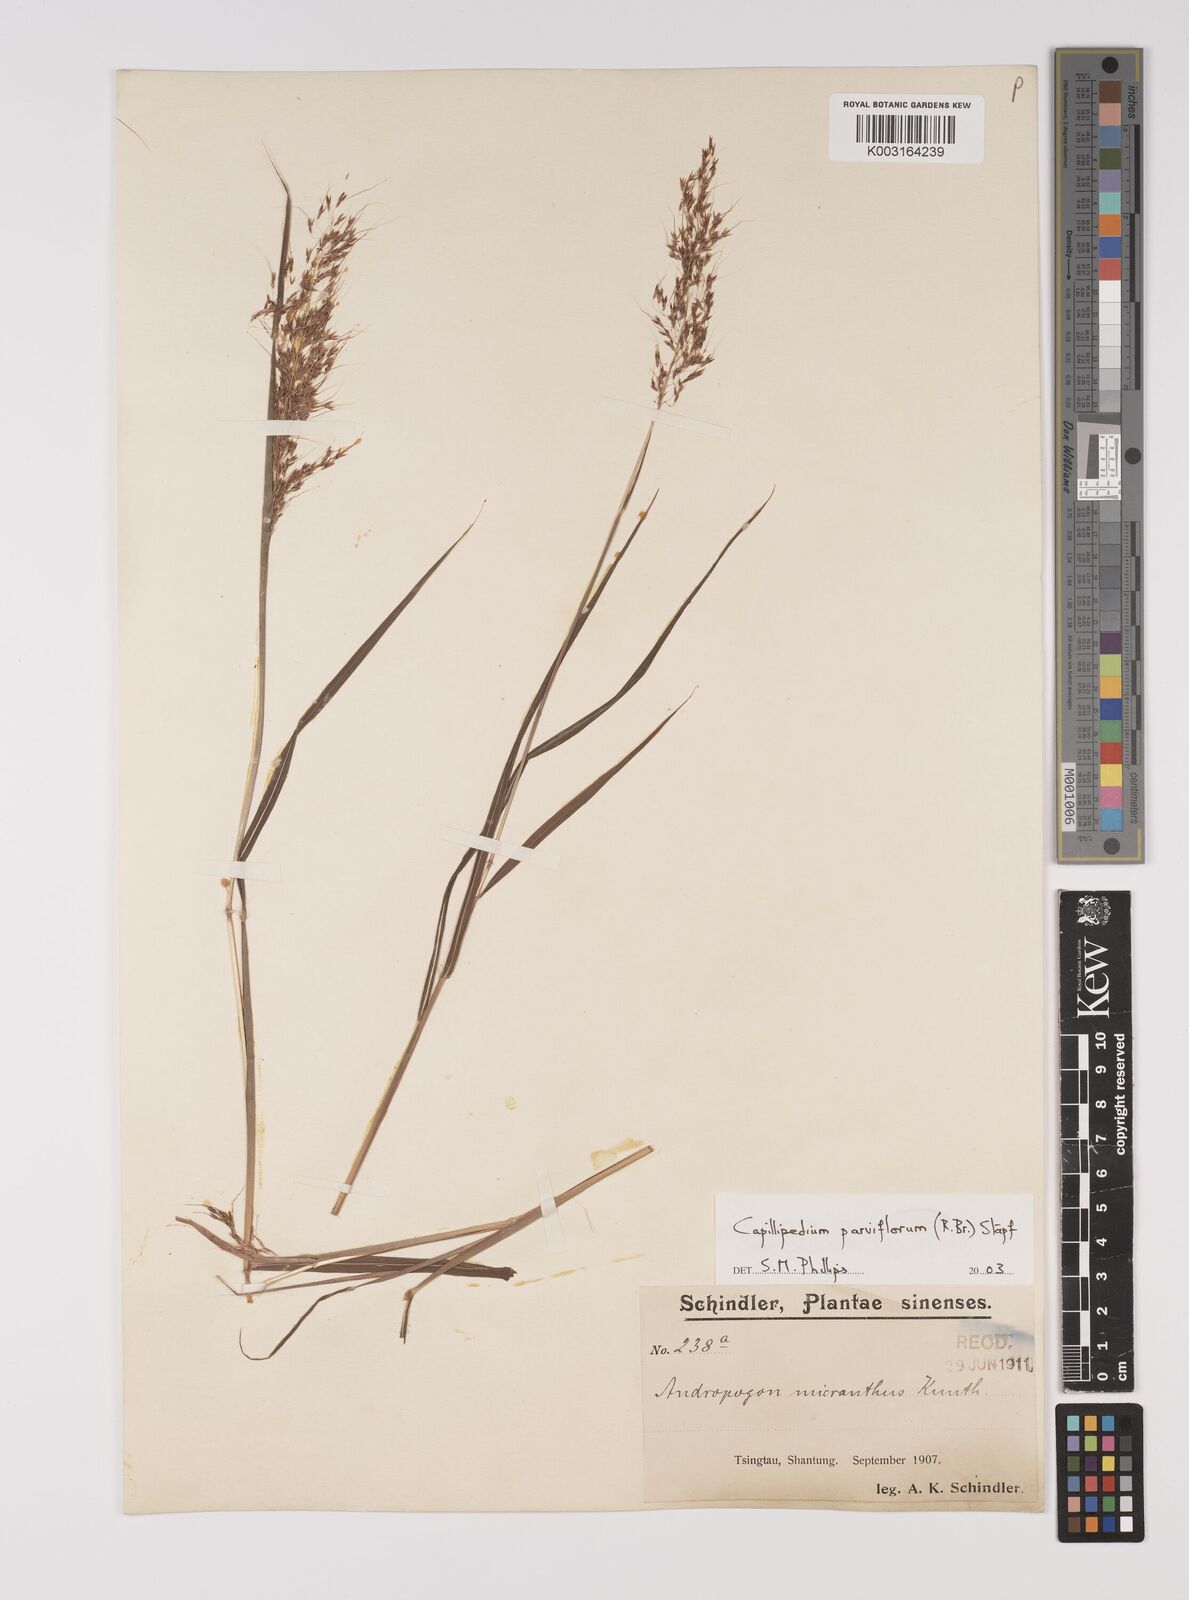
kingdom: Plantae
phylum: Tracheophyta
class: Liliopsida
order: Poales
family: Poaceae
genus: Capillipedium
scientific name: Capillipedium parviflorum
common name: Golden-beard
